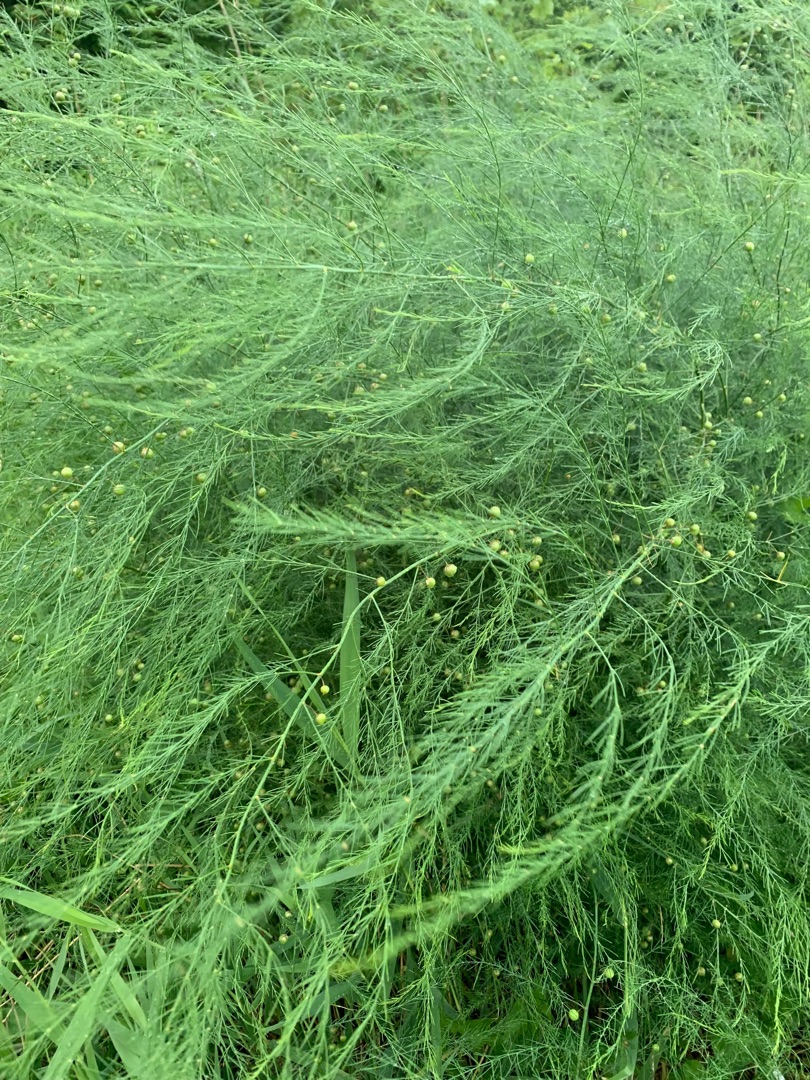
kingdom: Plantae
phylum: Tracheophyta
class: Liliopsida
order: Asparagales
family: Asparagaceae
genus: Asparagus
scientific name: Asparagus officinalis
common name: Asparges
